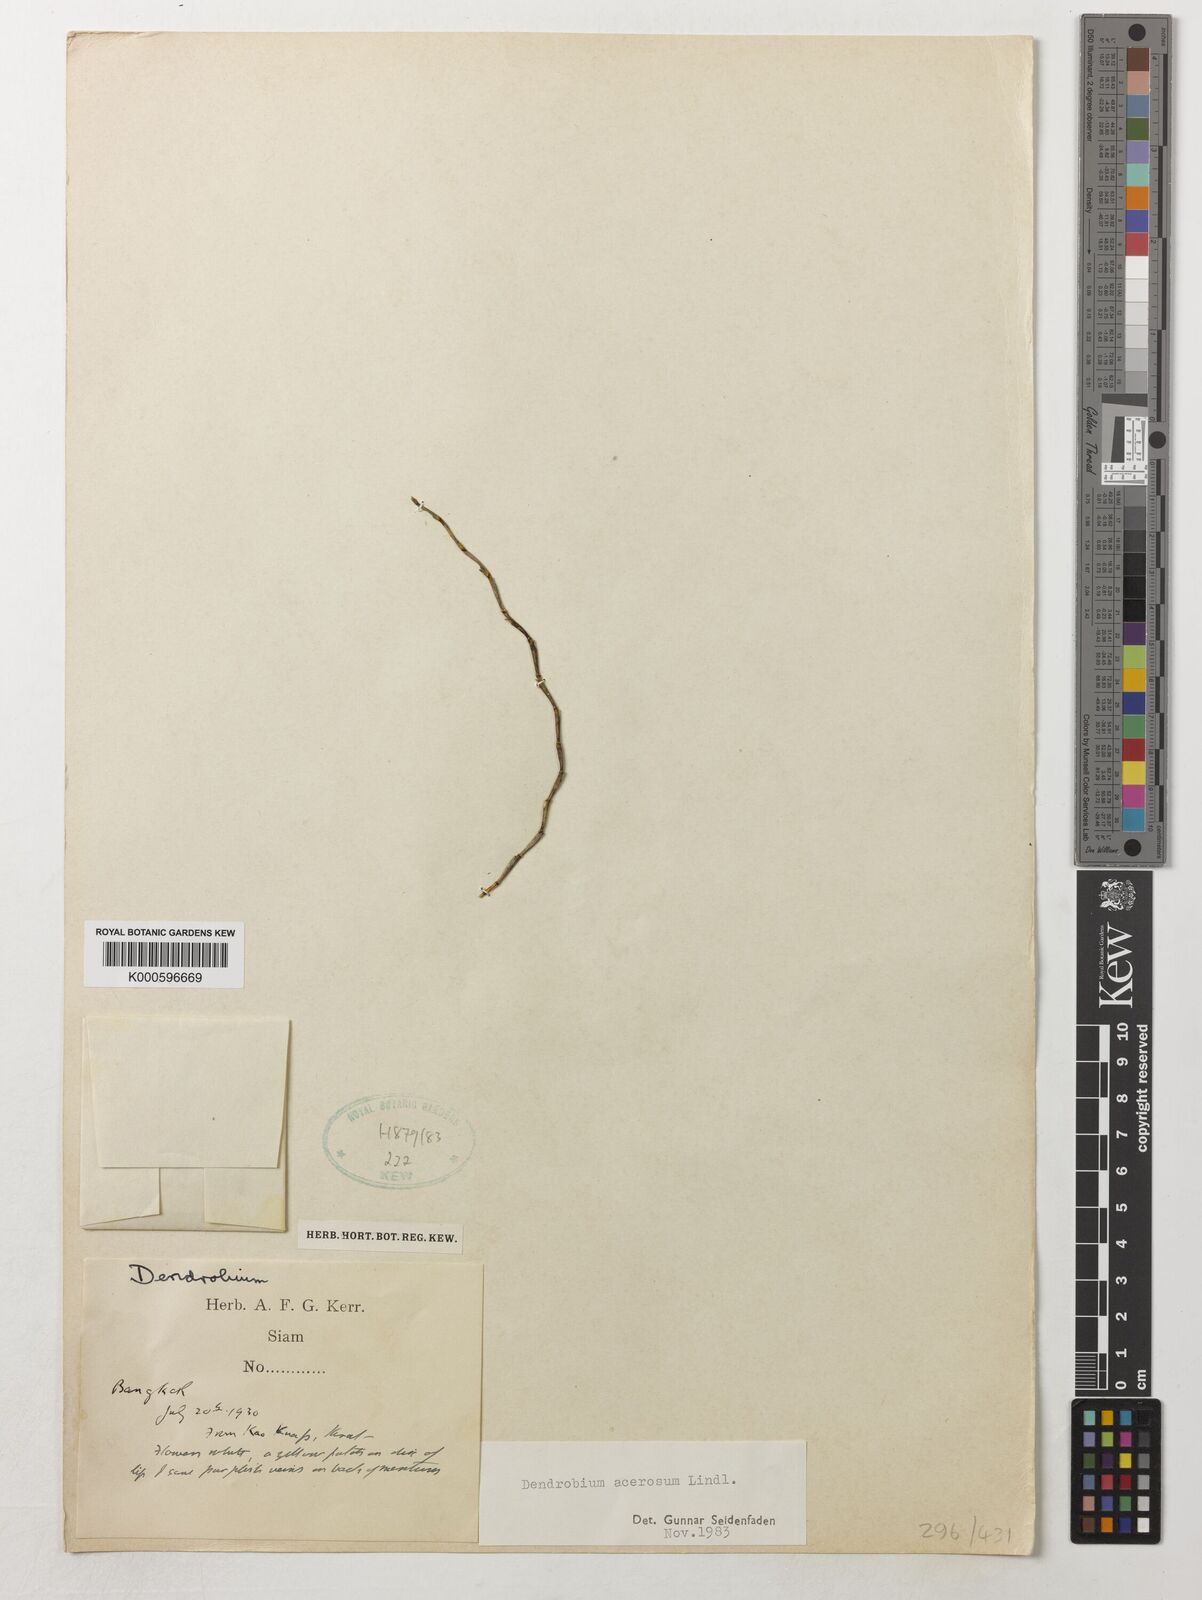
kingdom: Plantae
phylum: Tracheophyta
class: Liliopsida
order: Asparagales
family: Orchidaceae
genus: Dendrobium
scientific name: Dendrobium acerosum
